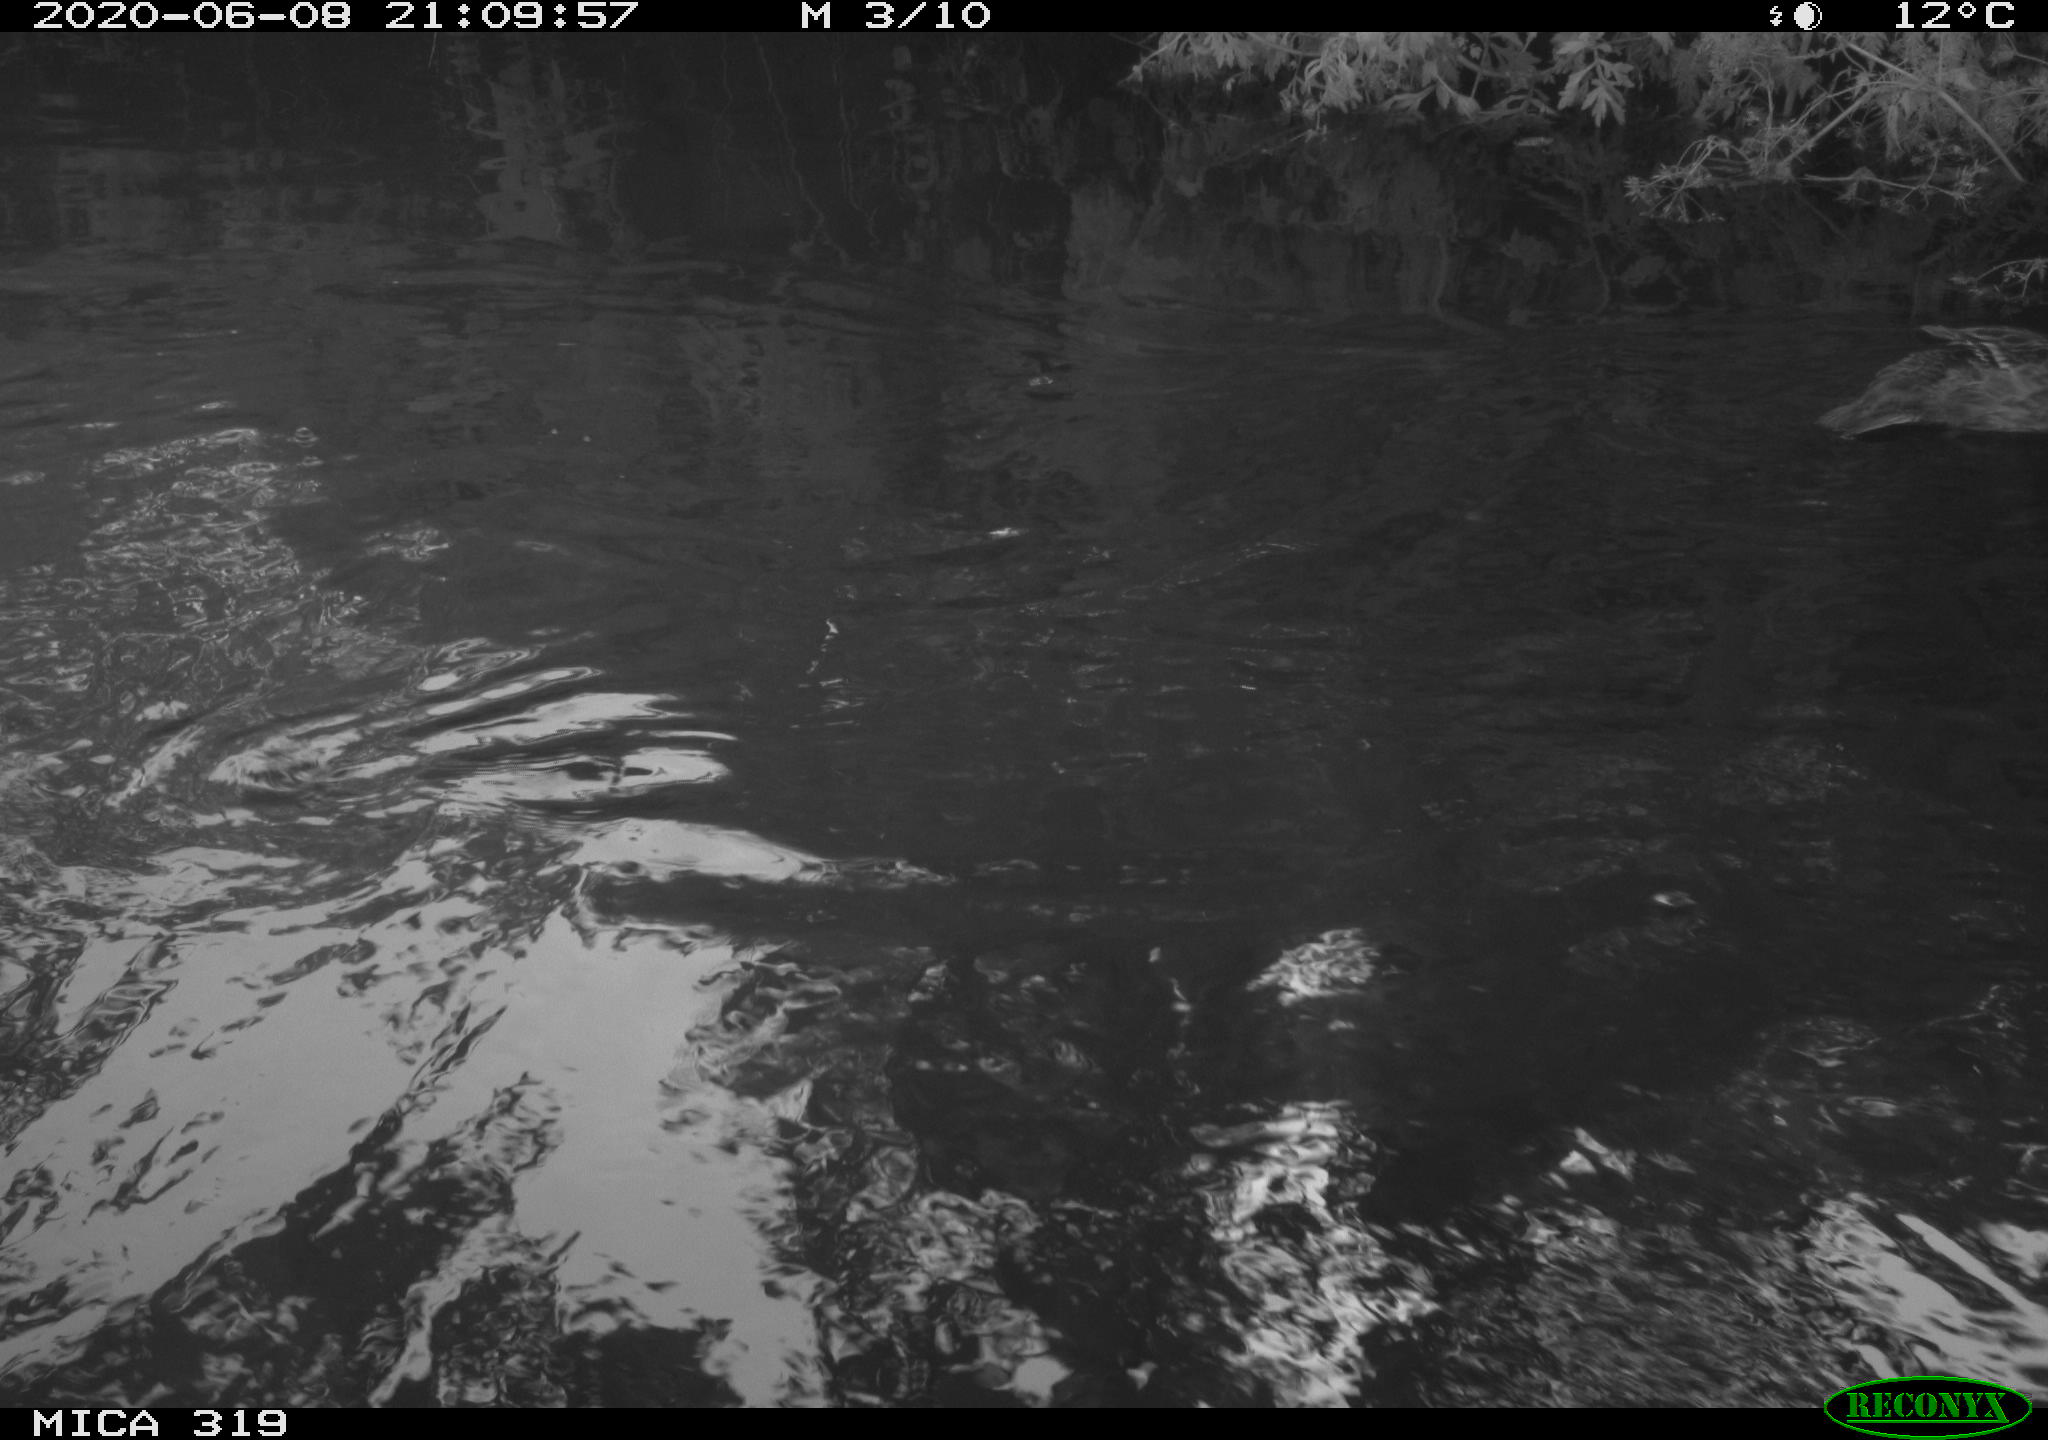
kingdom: Animalia
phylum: Chordata
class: Aves
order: Anseriformes
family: Anatidae
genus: Anas
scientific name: Anas platyrhynchos
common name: Mallard
